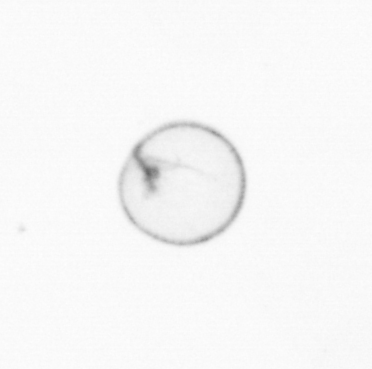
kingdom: Chromista
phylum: Myzozoa
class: Dinophyceae
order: Noctilucales
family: Noctilucaceae
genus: Noctiluca
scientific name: Noctiluca scintillans
